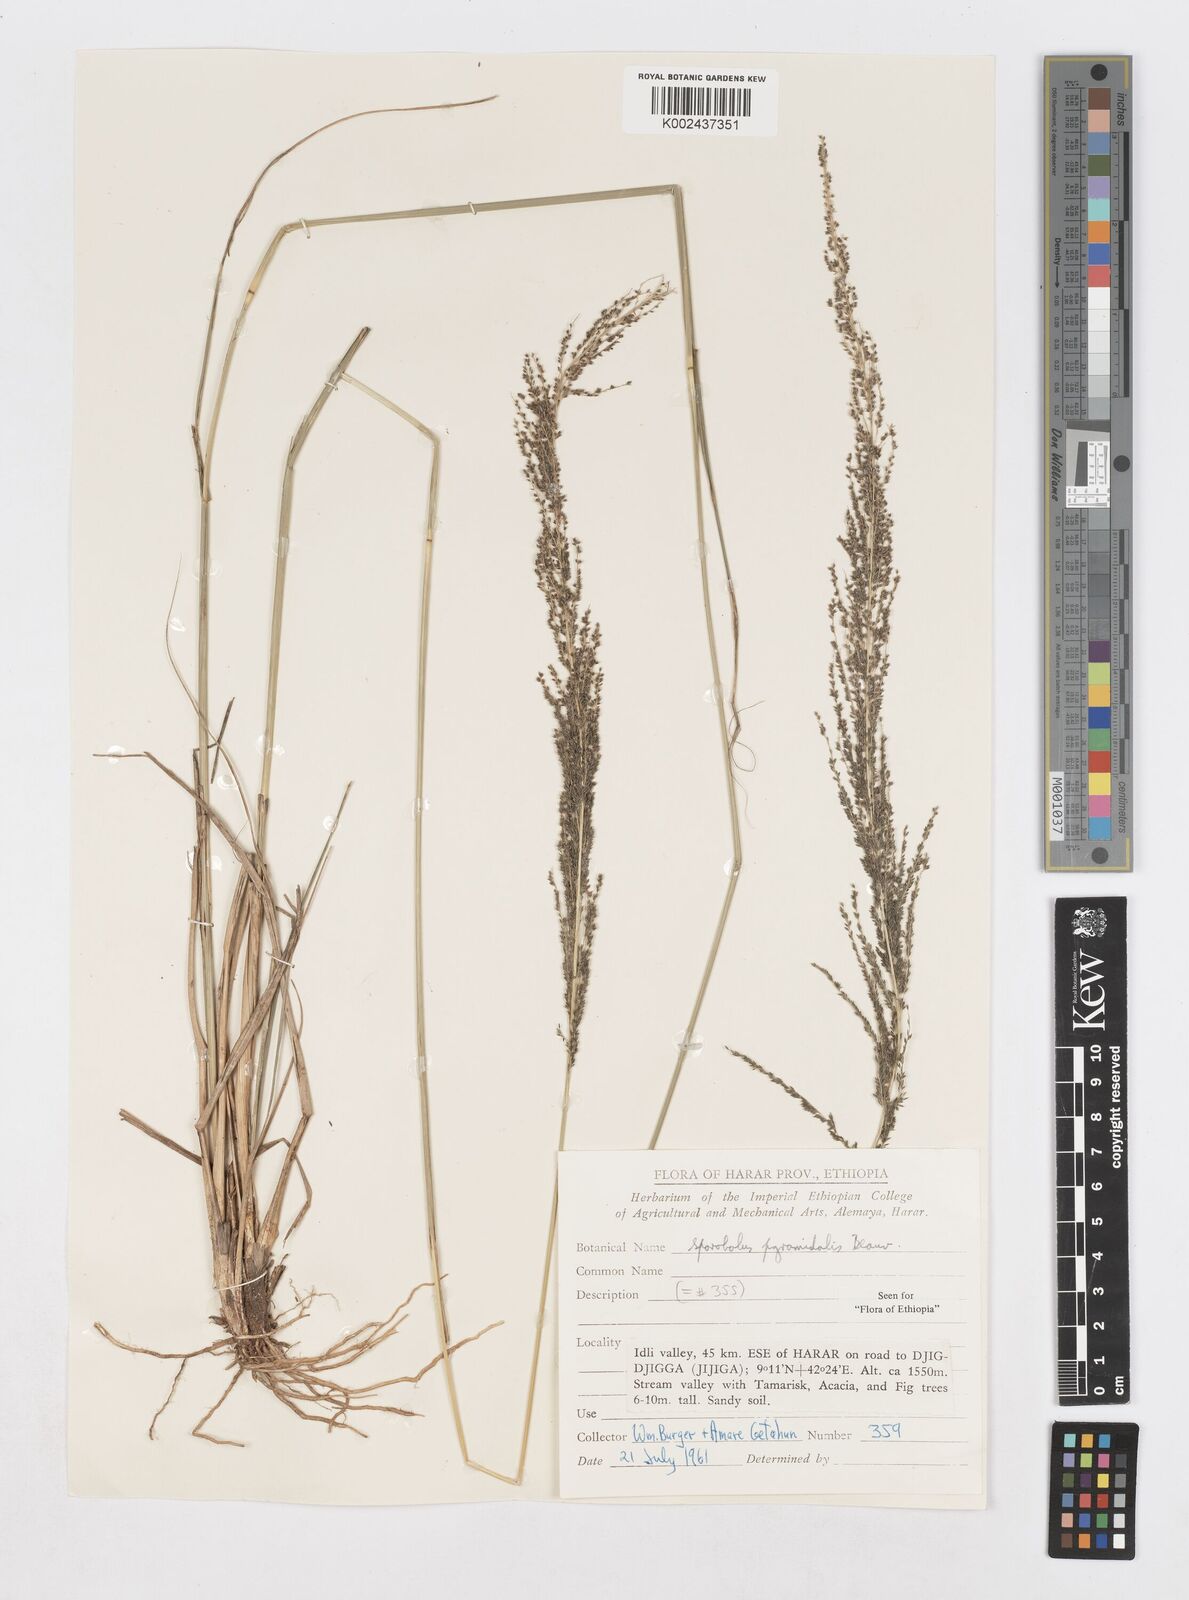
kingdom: Plantae
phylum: Tracheophyta
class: Liliopsida
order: Poales
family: Poaceae
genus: Sporobolus
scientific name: Sporobolus pyramidalis
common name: West indian dropseed
